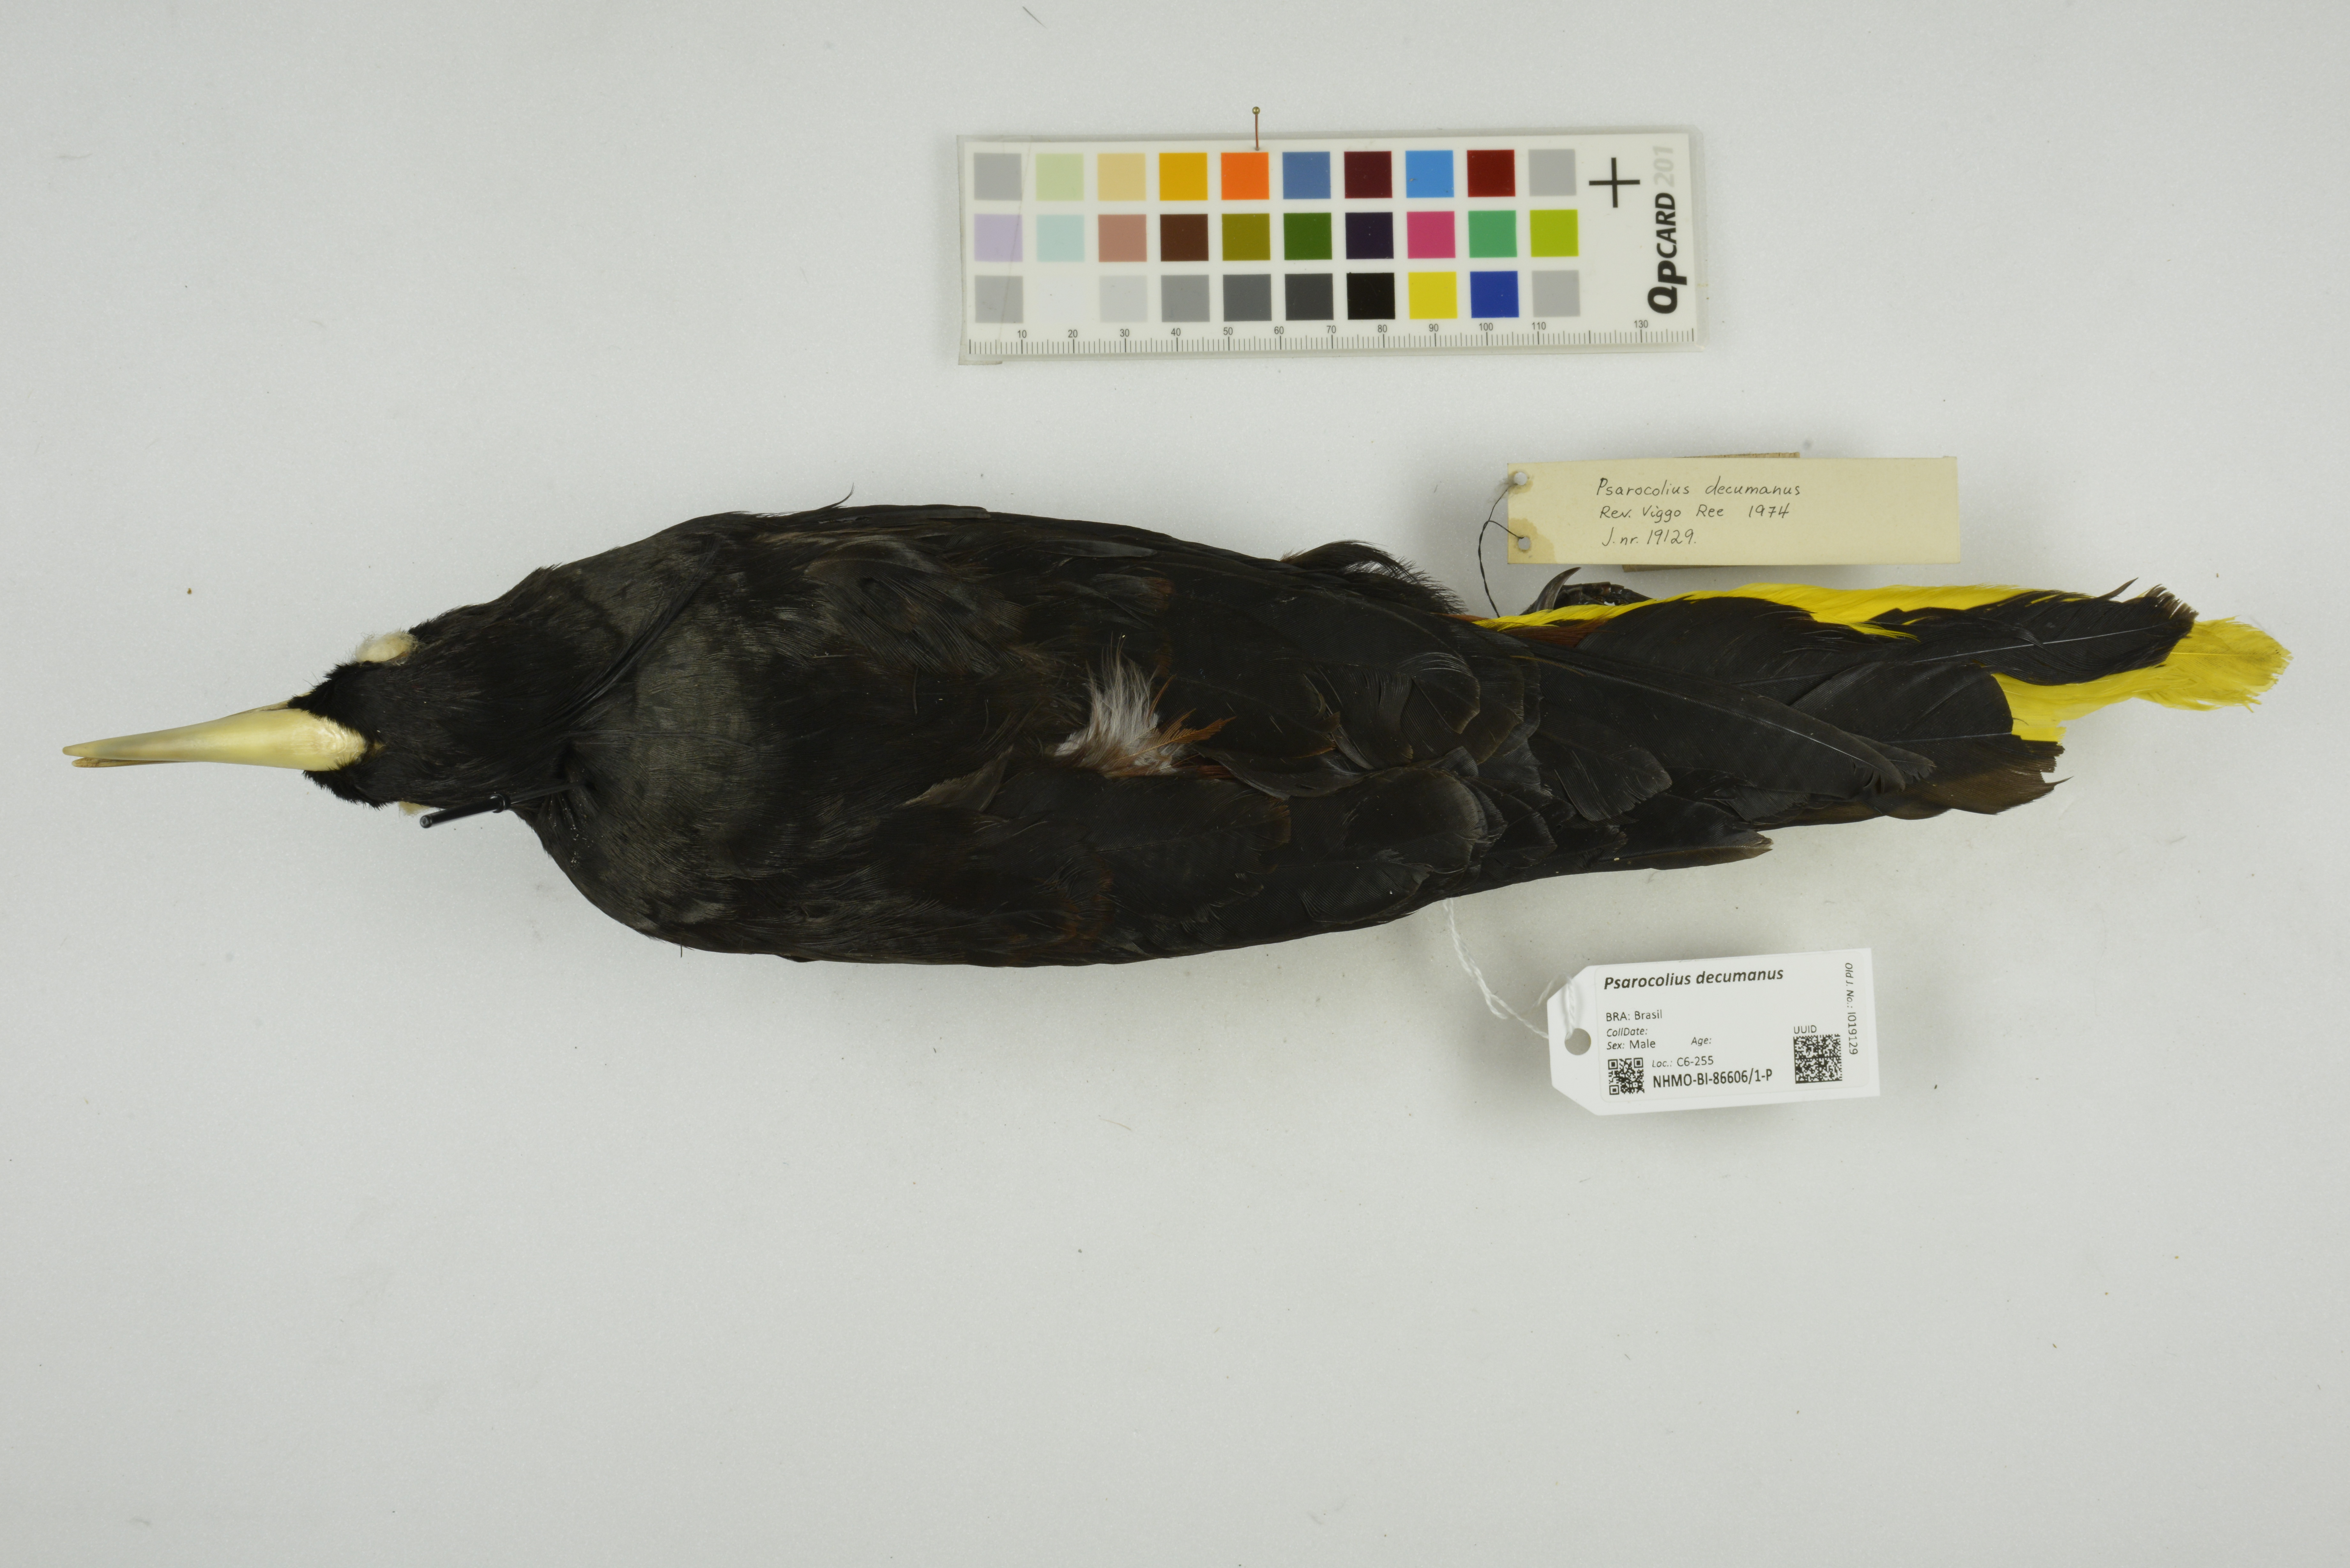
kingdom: Animalia
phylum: Chordata
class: Aves
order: Passeriformes
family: Icteridae
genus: Psarocolius
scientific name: Psarocolius decumanus
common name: Crested oropendola
